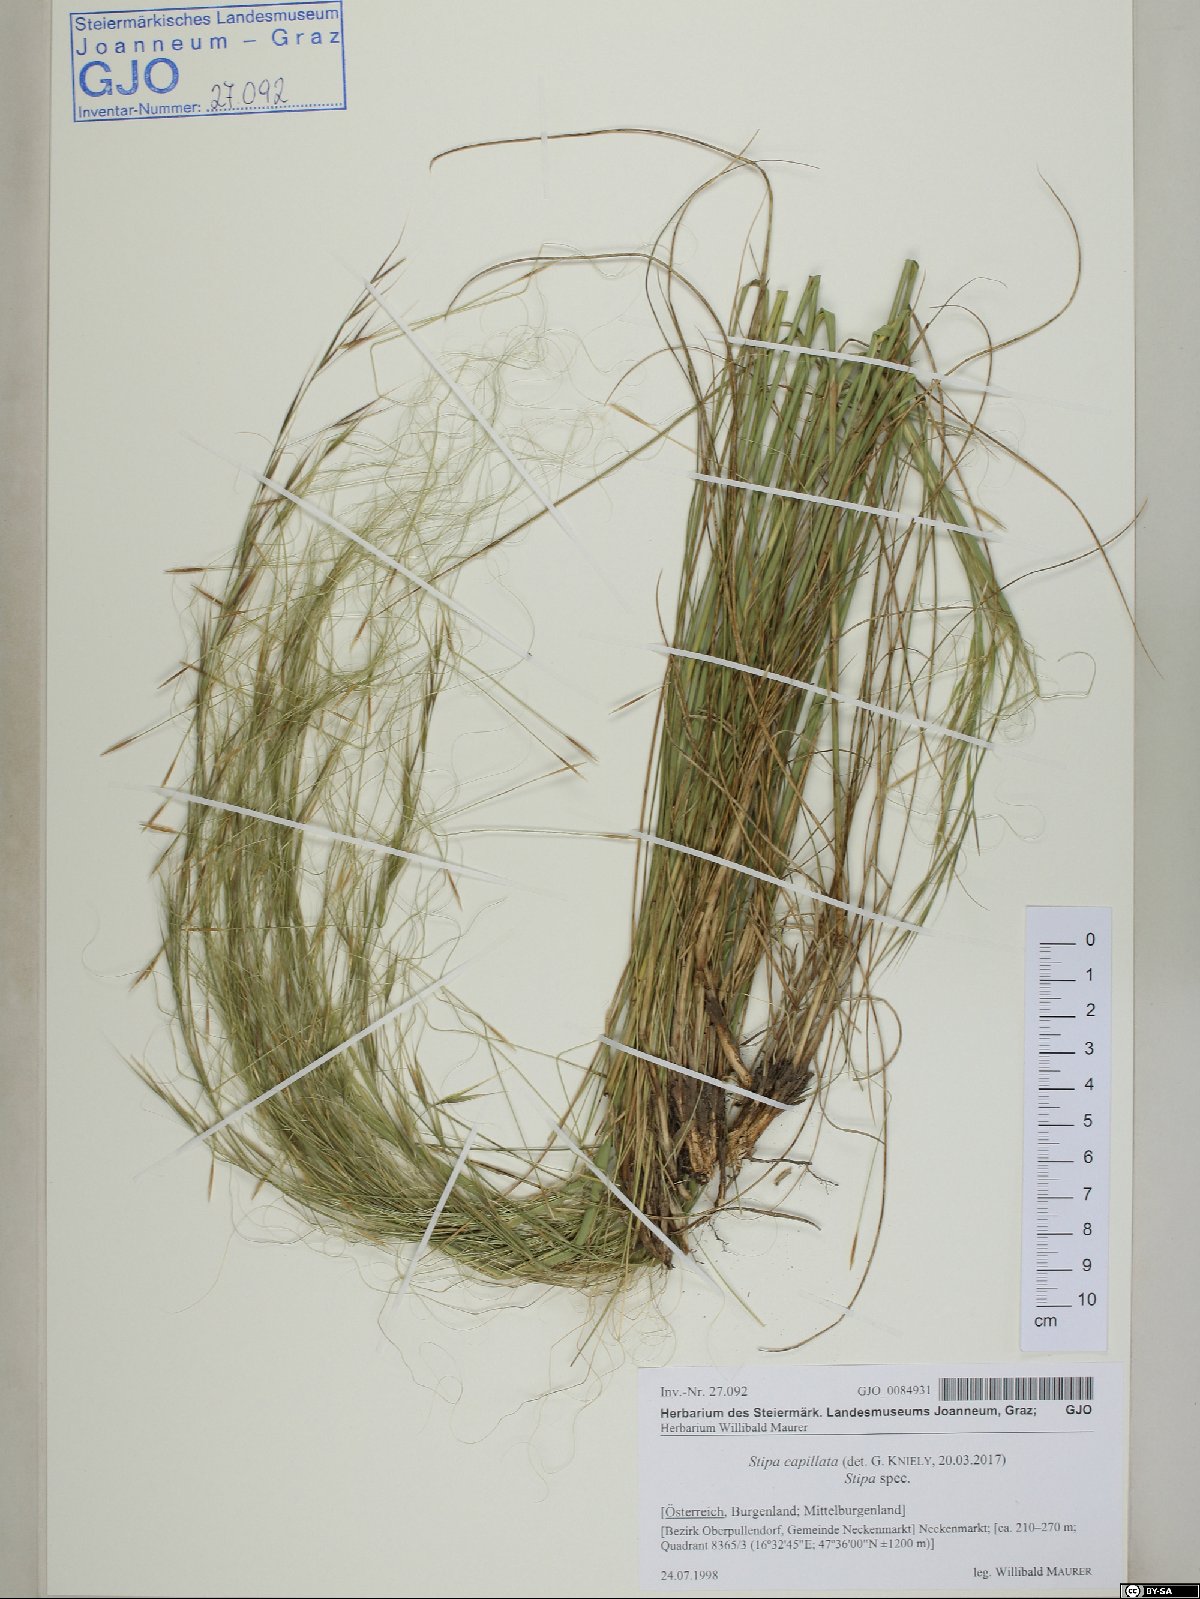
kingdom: Plantae
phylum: Tracheophyta
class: Liliopsida
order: Poales
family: Poaceae
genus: Stipa
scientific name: Stipa capillata
